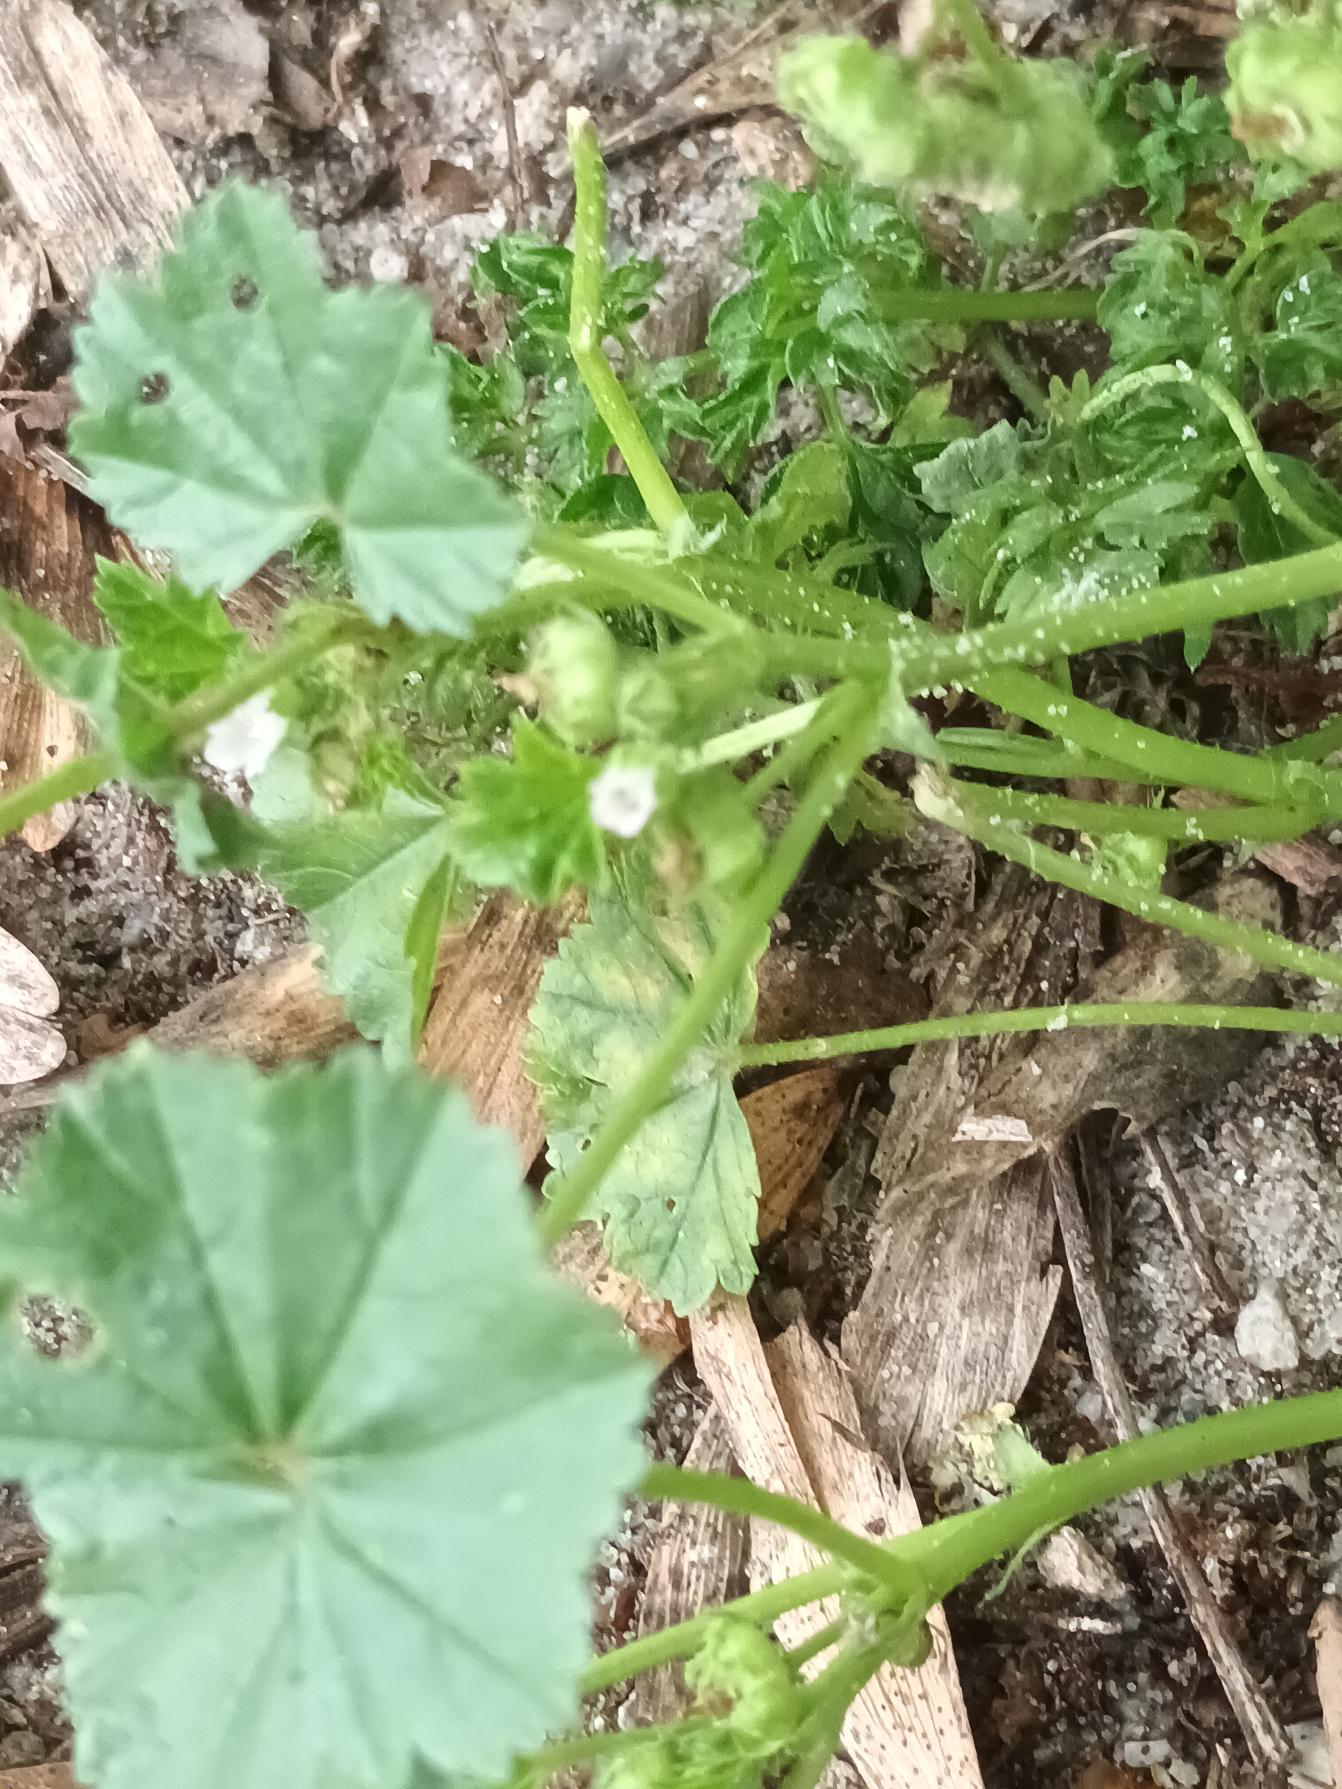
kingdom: Plantae
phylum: Tracheophyta
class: Magnoliopsida
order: Malvales
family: Malvaceae
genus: Malva
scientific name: Malva pusilla
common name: Liden katost
